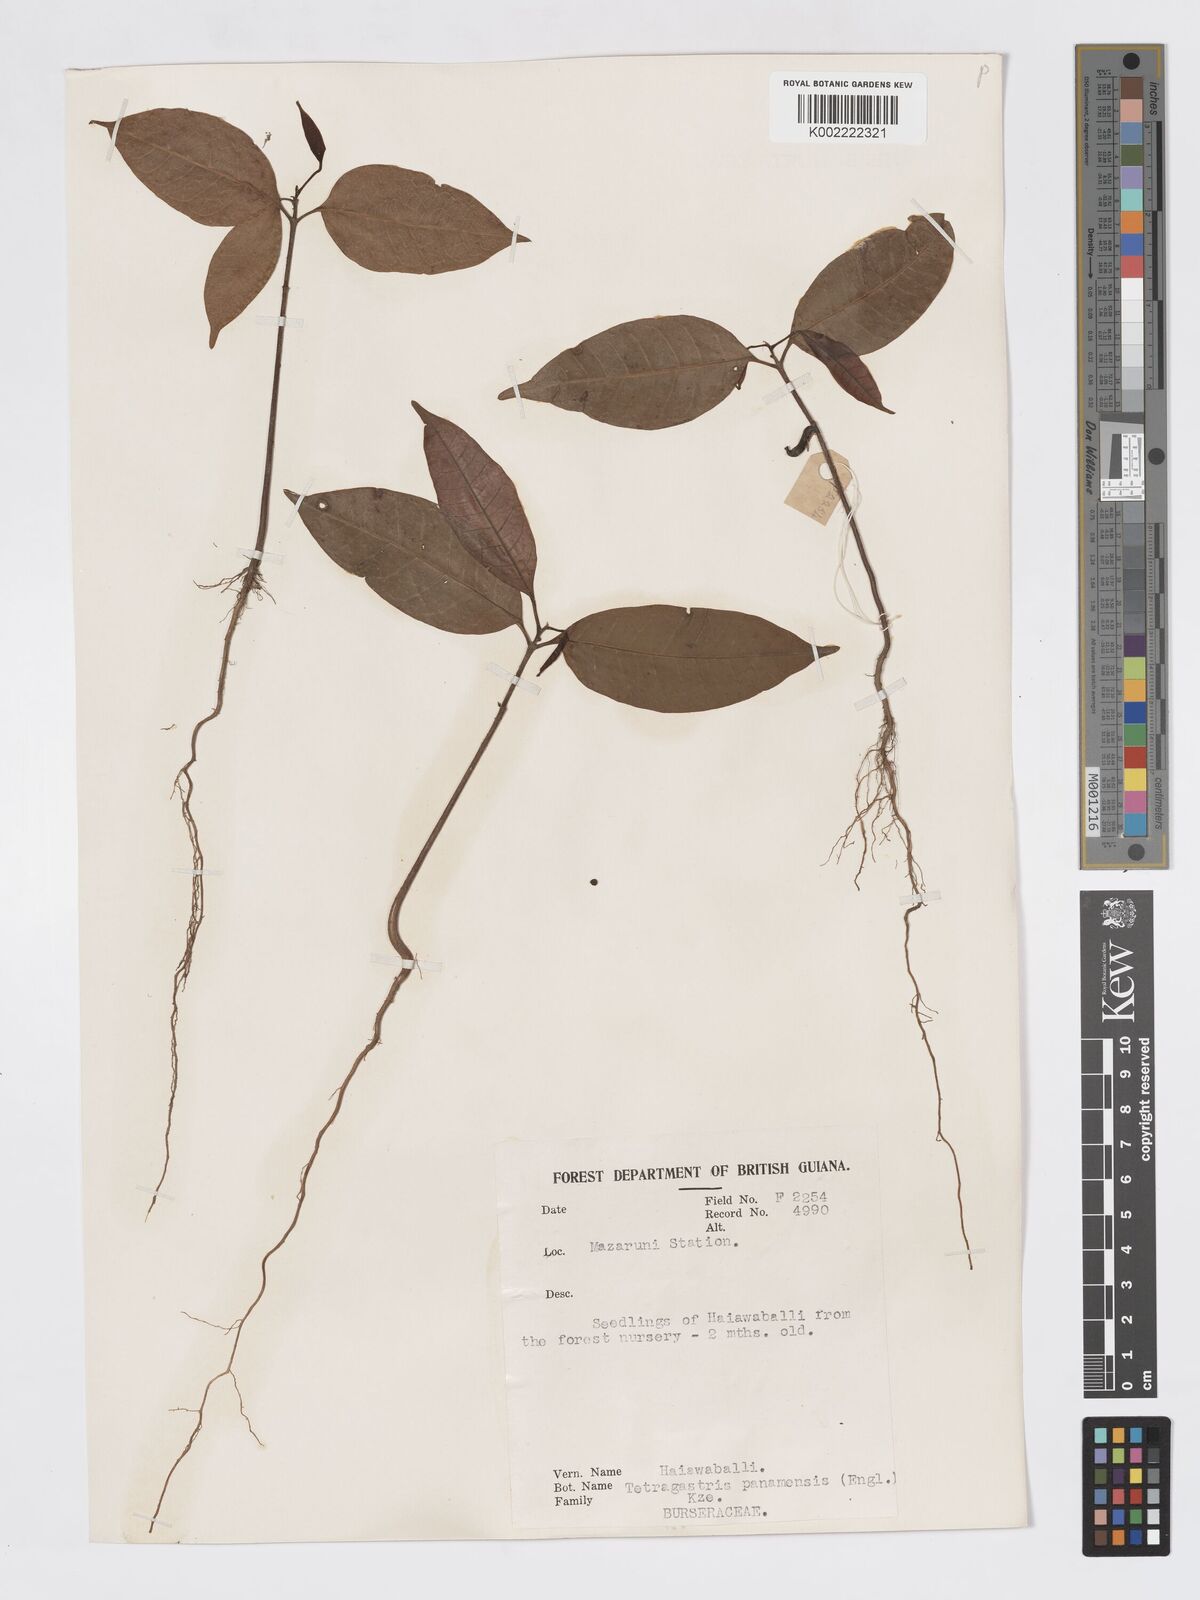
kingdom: Plantae
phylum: Tracheophyta
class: Magnoliopsida
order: Sapindales
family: Burseraceae
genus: Tetragastris
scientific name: Tetragastris panamensis
